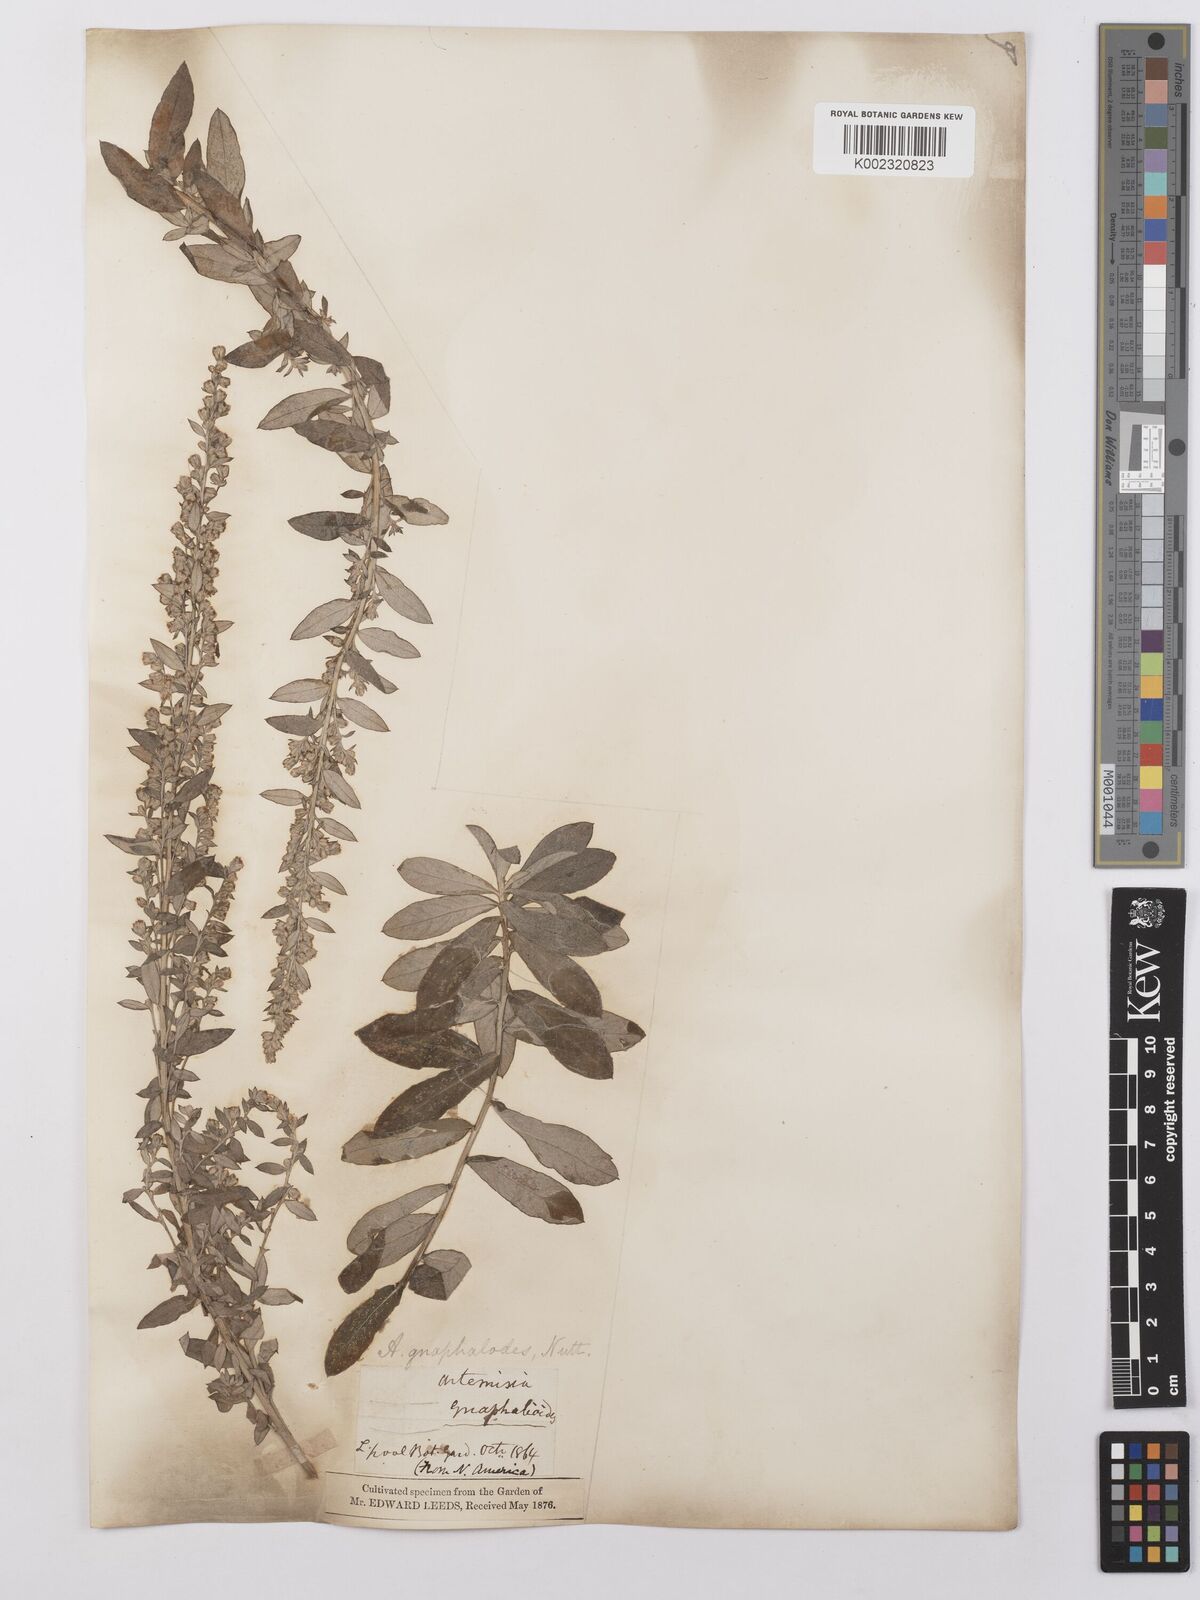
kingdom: Plantae
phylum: Tracheophyta
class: Magnoliopsida
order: Asterales
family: Asteraceae
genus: Artemisia
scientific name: Artemisia ludoviciana
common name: Western mugwort
